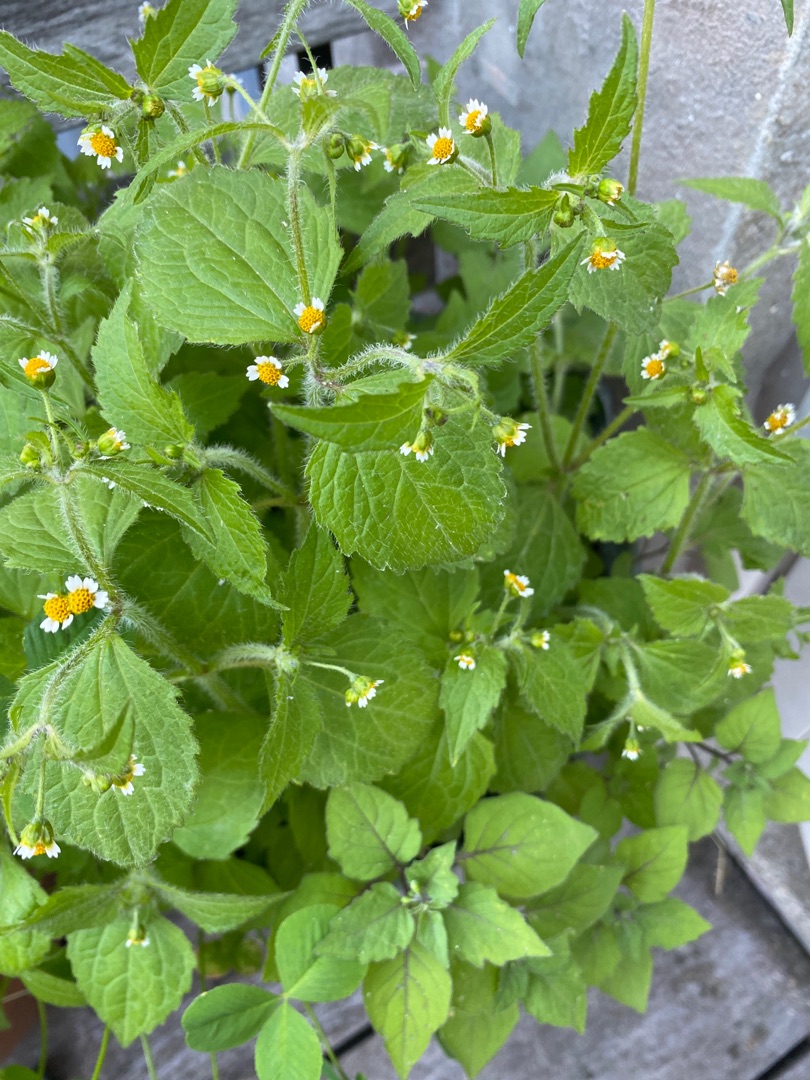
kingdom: Plantae
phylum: Tracheophyta
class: Magnoliopsida
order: Asterales
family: Asteraceae
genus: Galinsoga
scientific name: Galinsoga quadriradiata
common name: Kirtel-kortstråle
